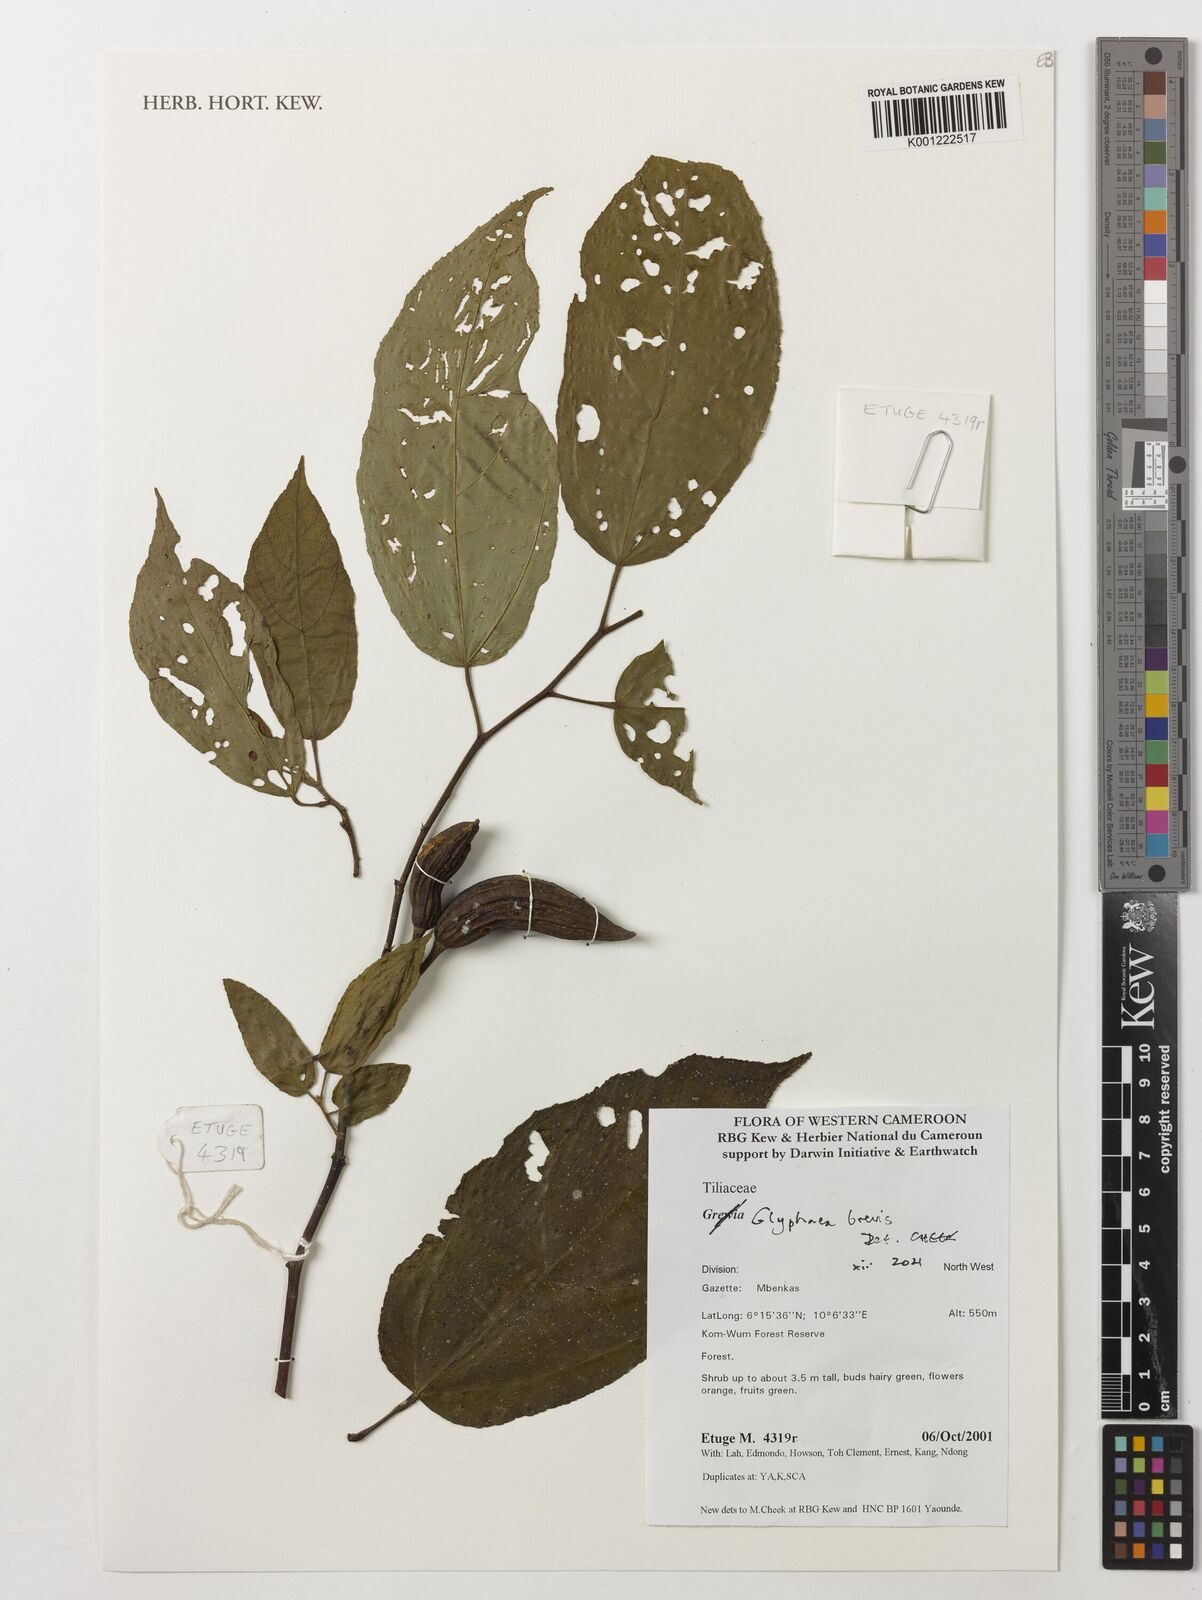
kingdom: Plantae
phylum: Tracheophyta
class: Magnoliopsida
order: Malvales
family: Malvaceae
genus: Glyphaea
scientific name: Glyphaea
